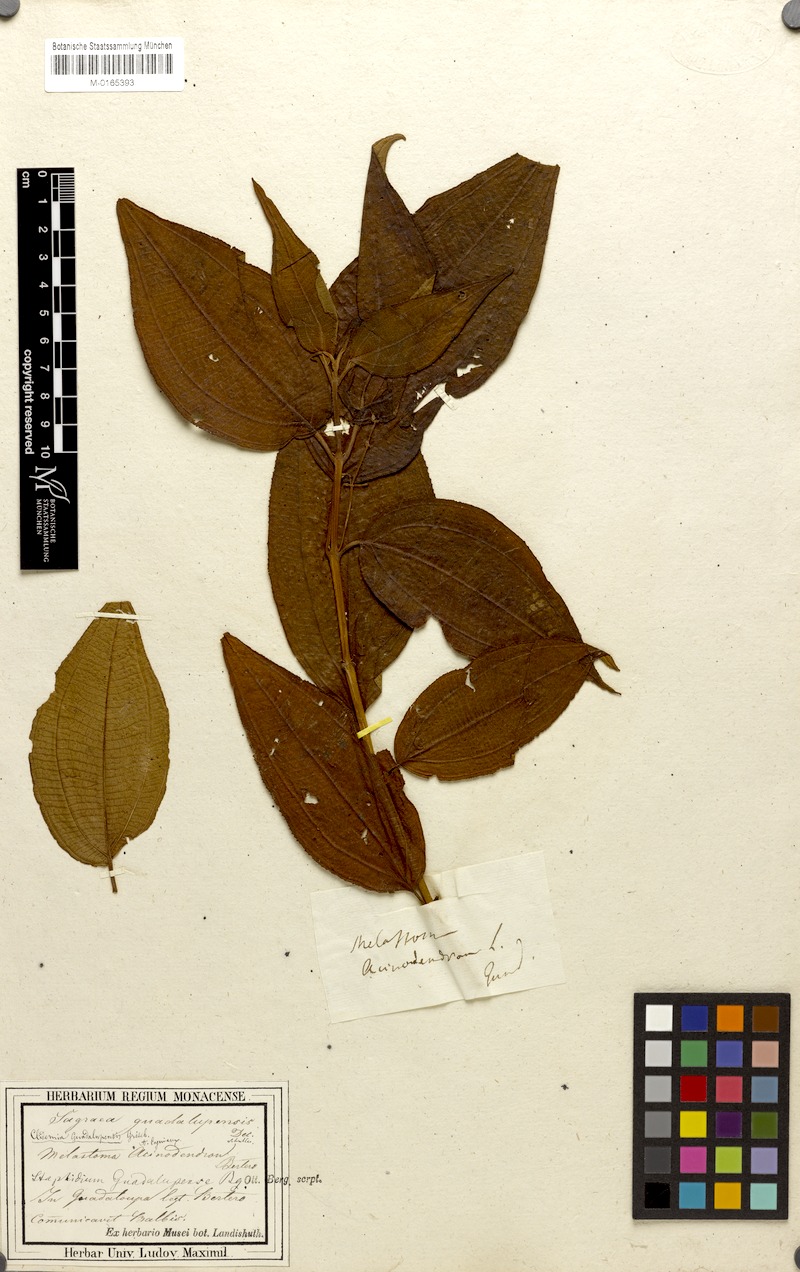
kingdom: Plantae
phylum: Tracheophyta
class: Magnoliopsida
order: Myrtales
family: Melastomataceae
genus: Miconia
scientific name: Miconia guadalupensis
